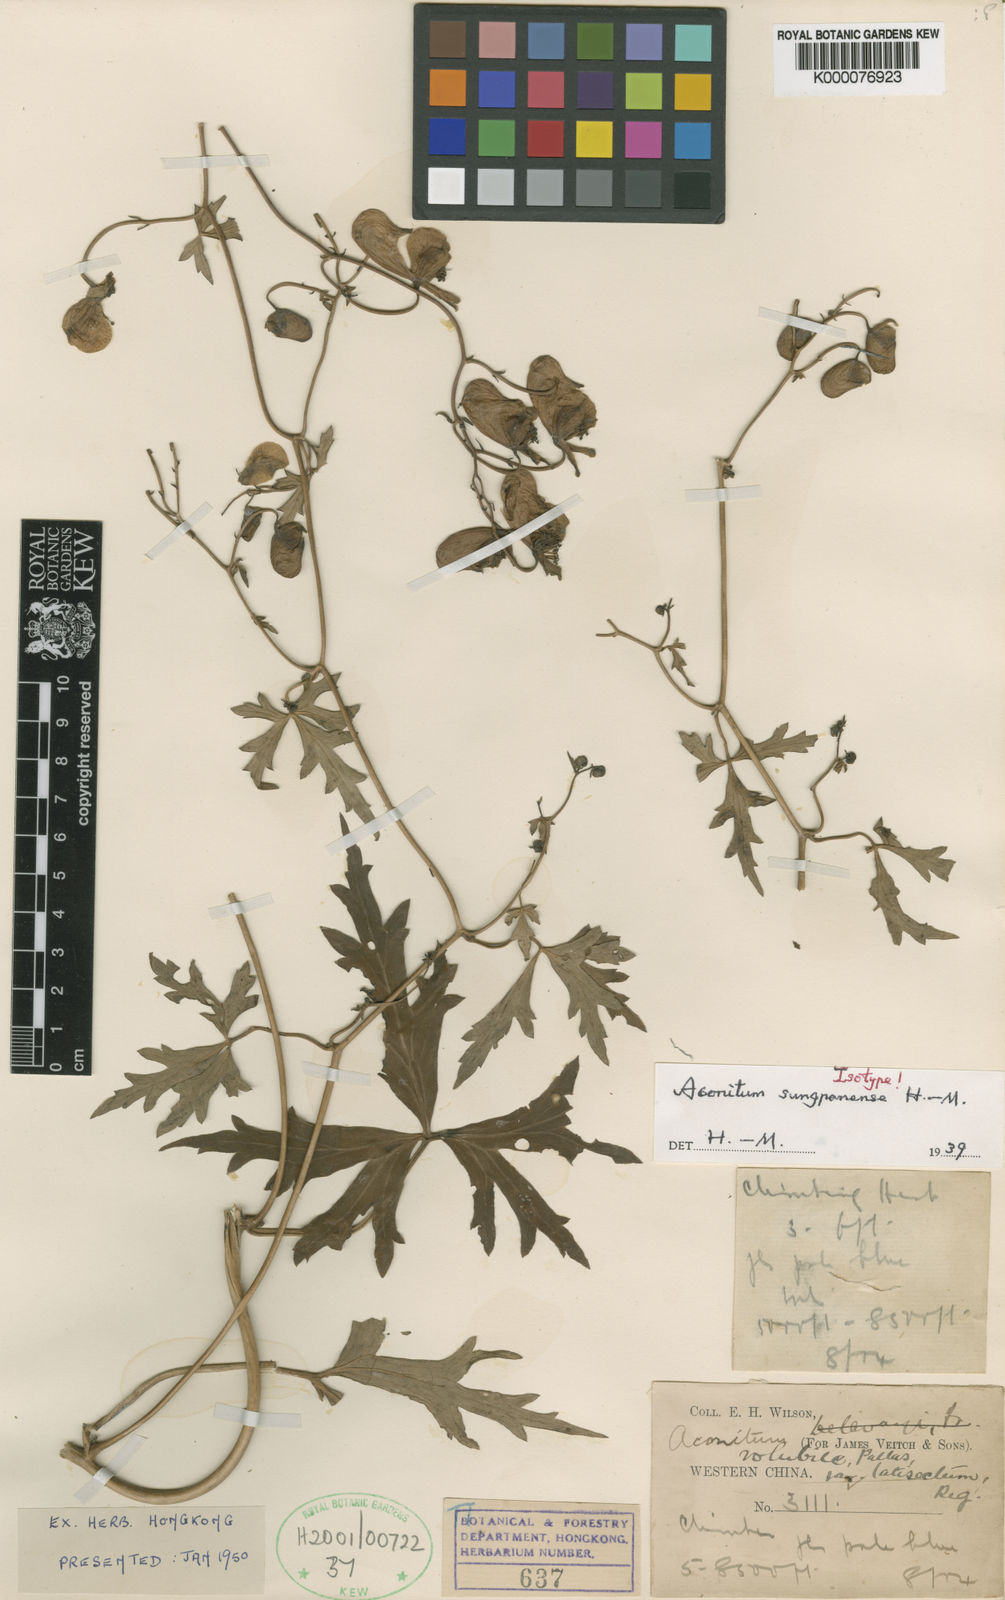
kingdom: Plantae
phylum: Tracheophyta
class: Magnoliopsida
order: Ranunculales
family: Ranunculaceae
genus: Aconitum
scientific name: Aconitum henryi
